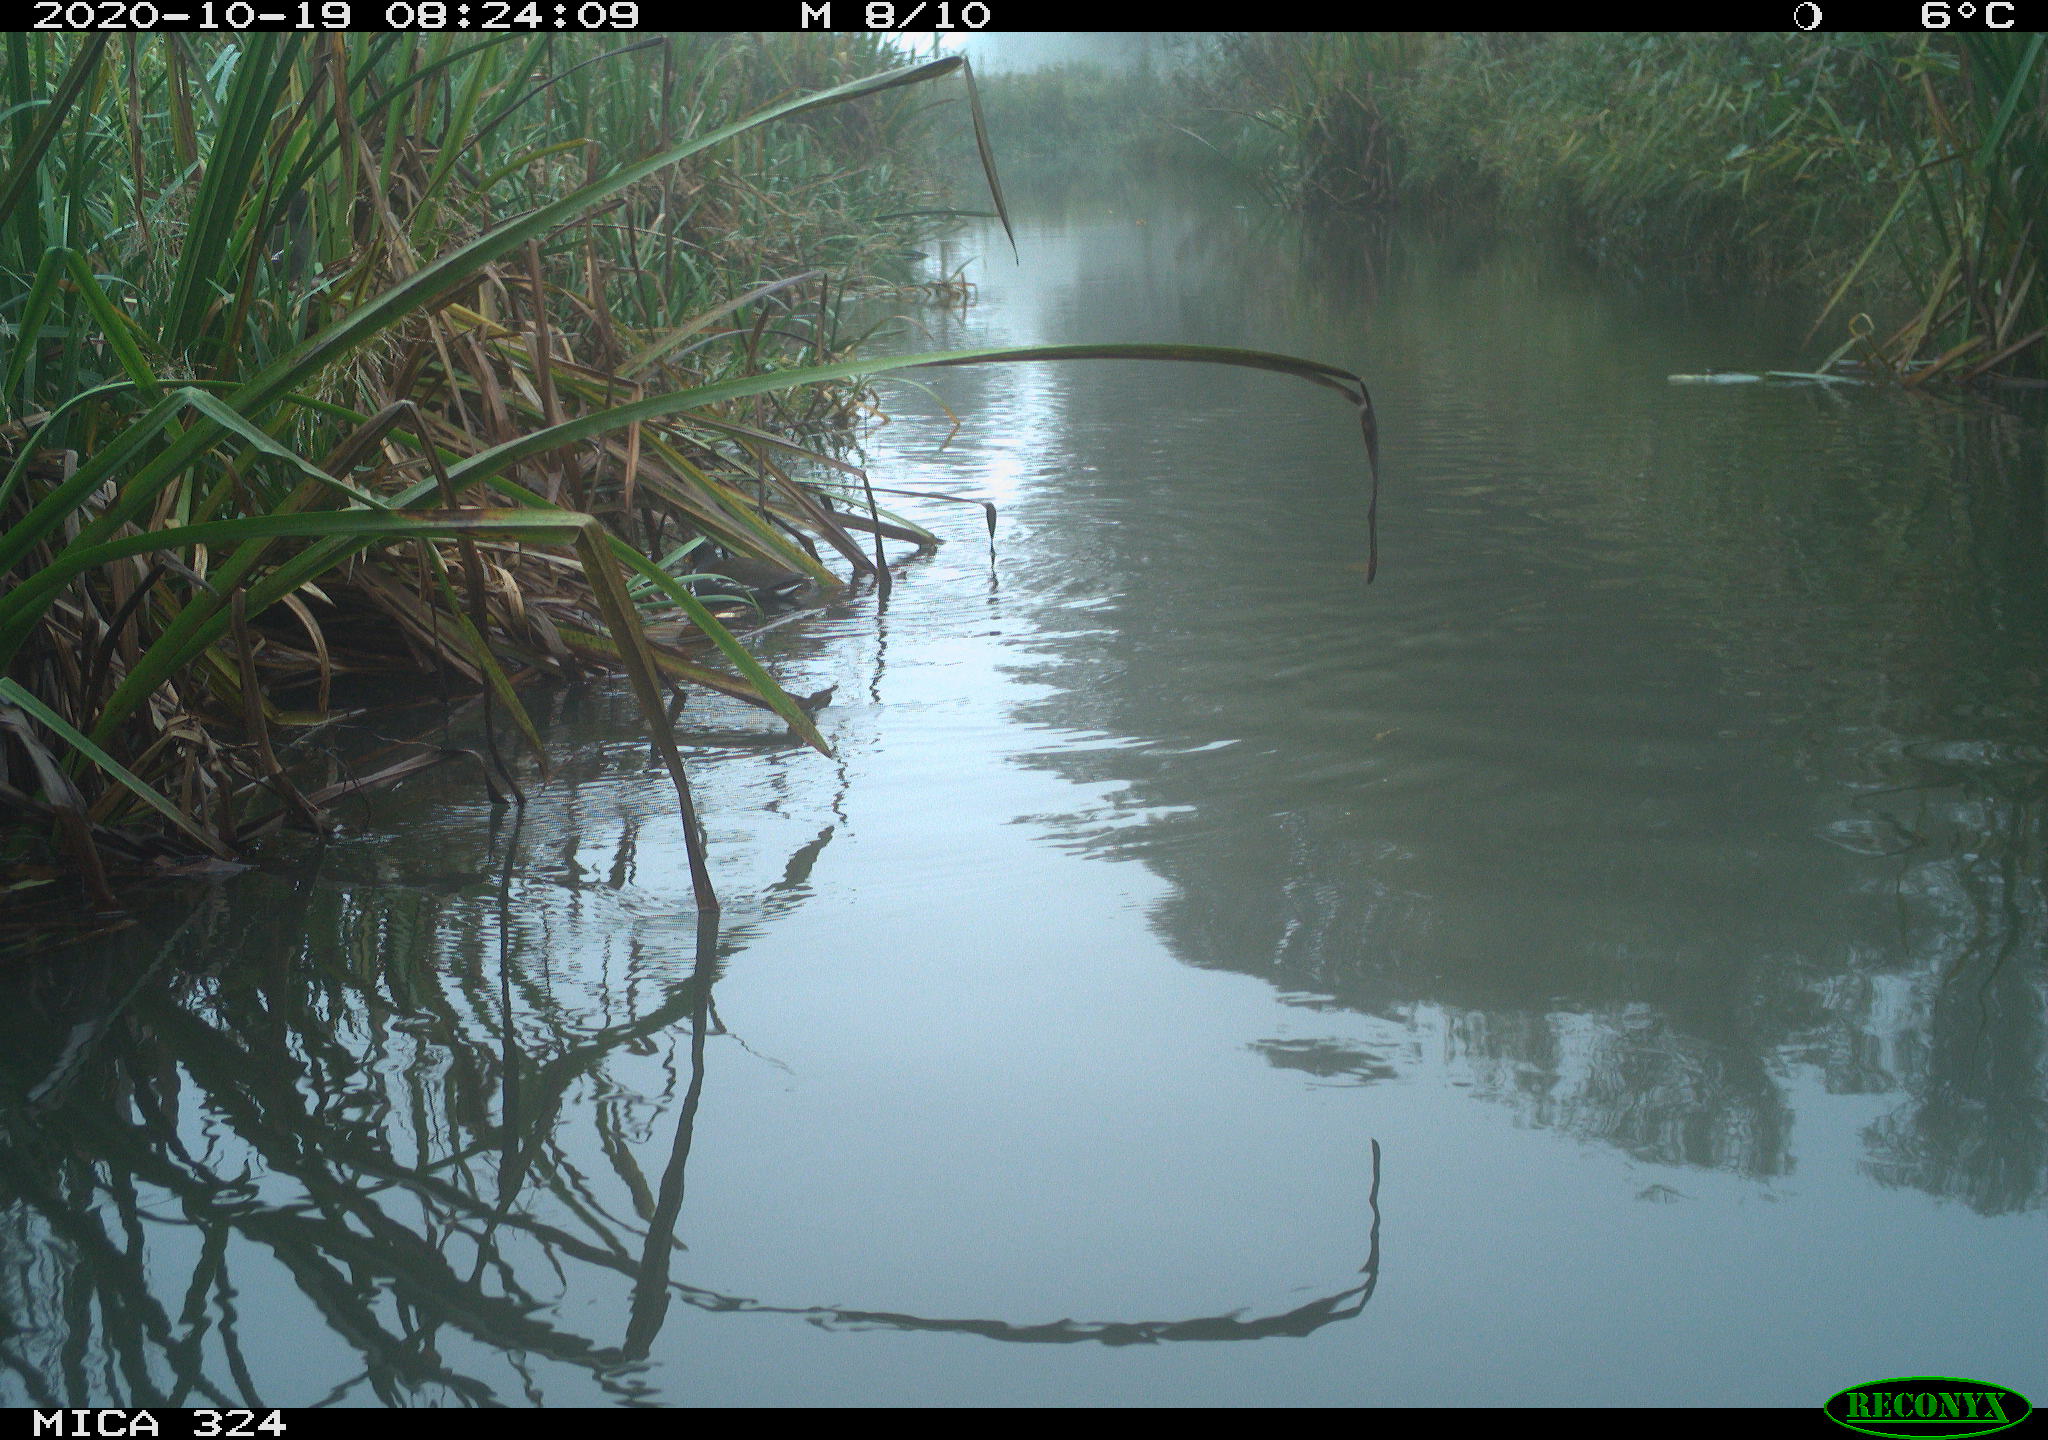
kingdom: Animalia
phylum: Chordata
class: Aves
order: Gruiformes
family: Rallidae
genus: Gallinula
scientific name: Gallinula chloropus
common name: Common moorhen
